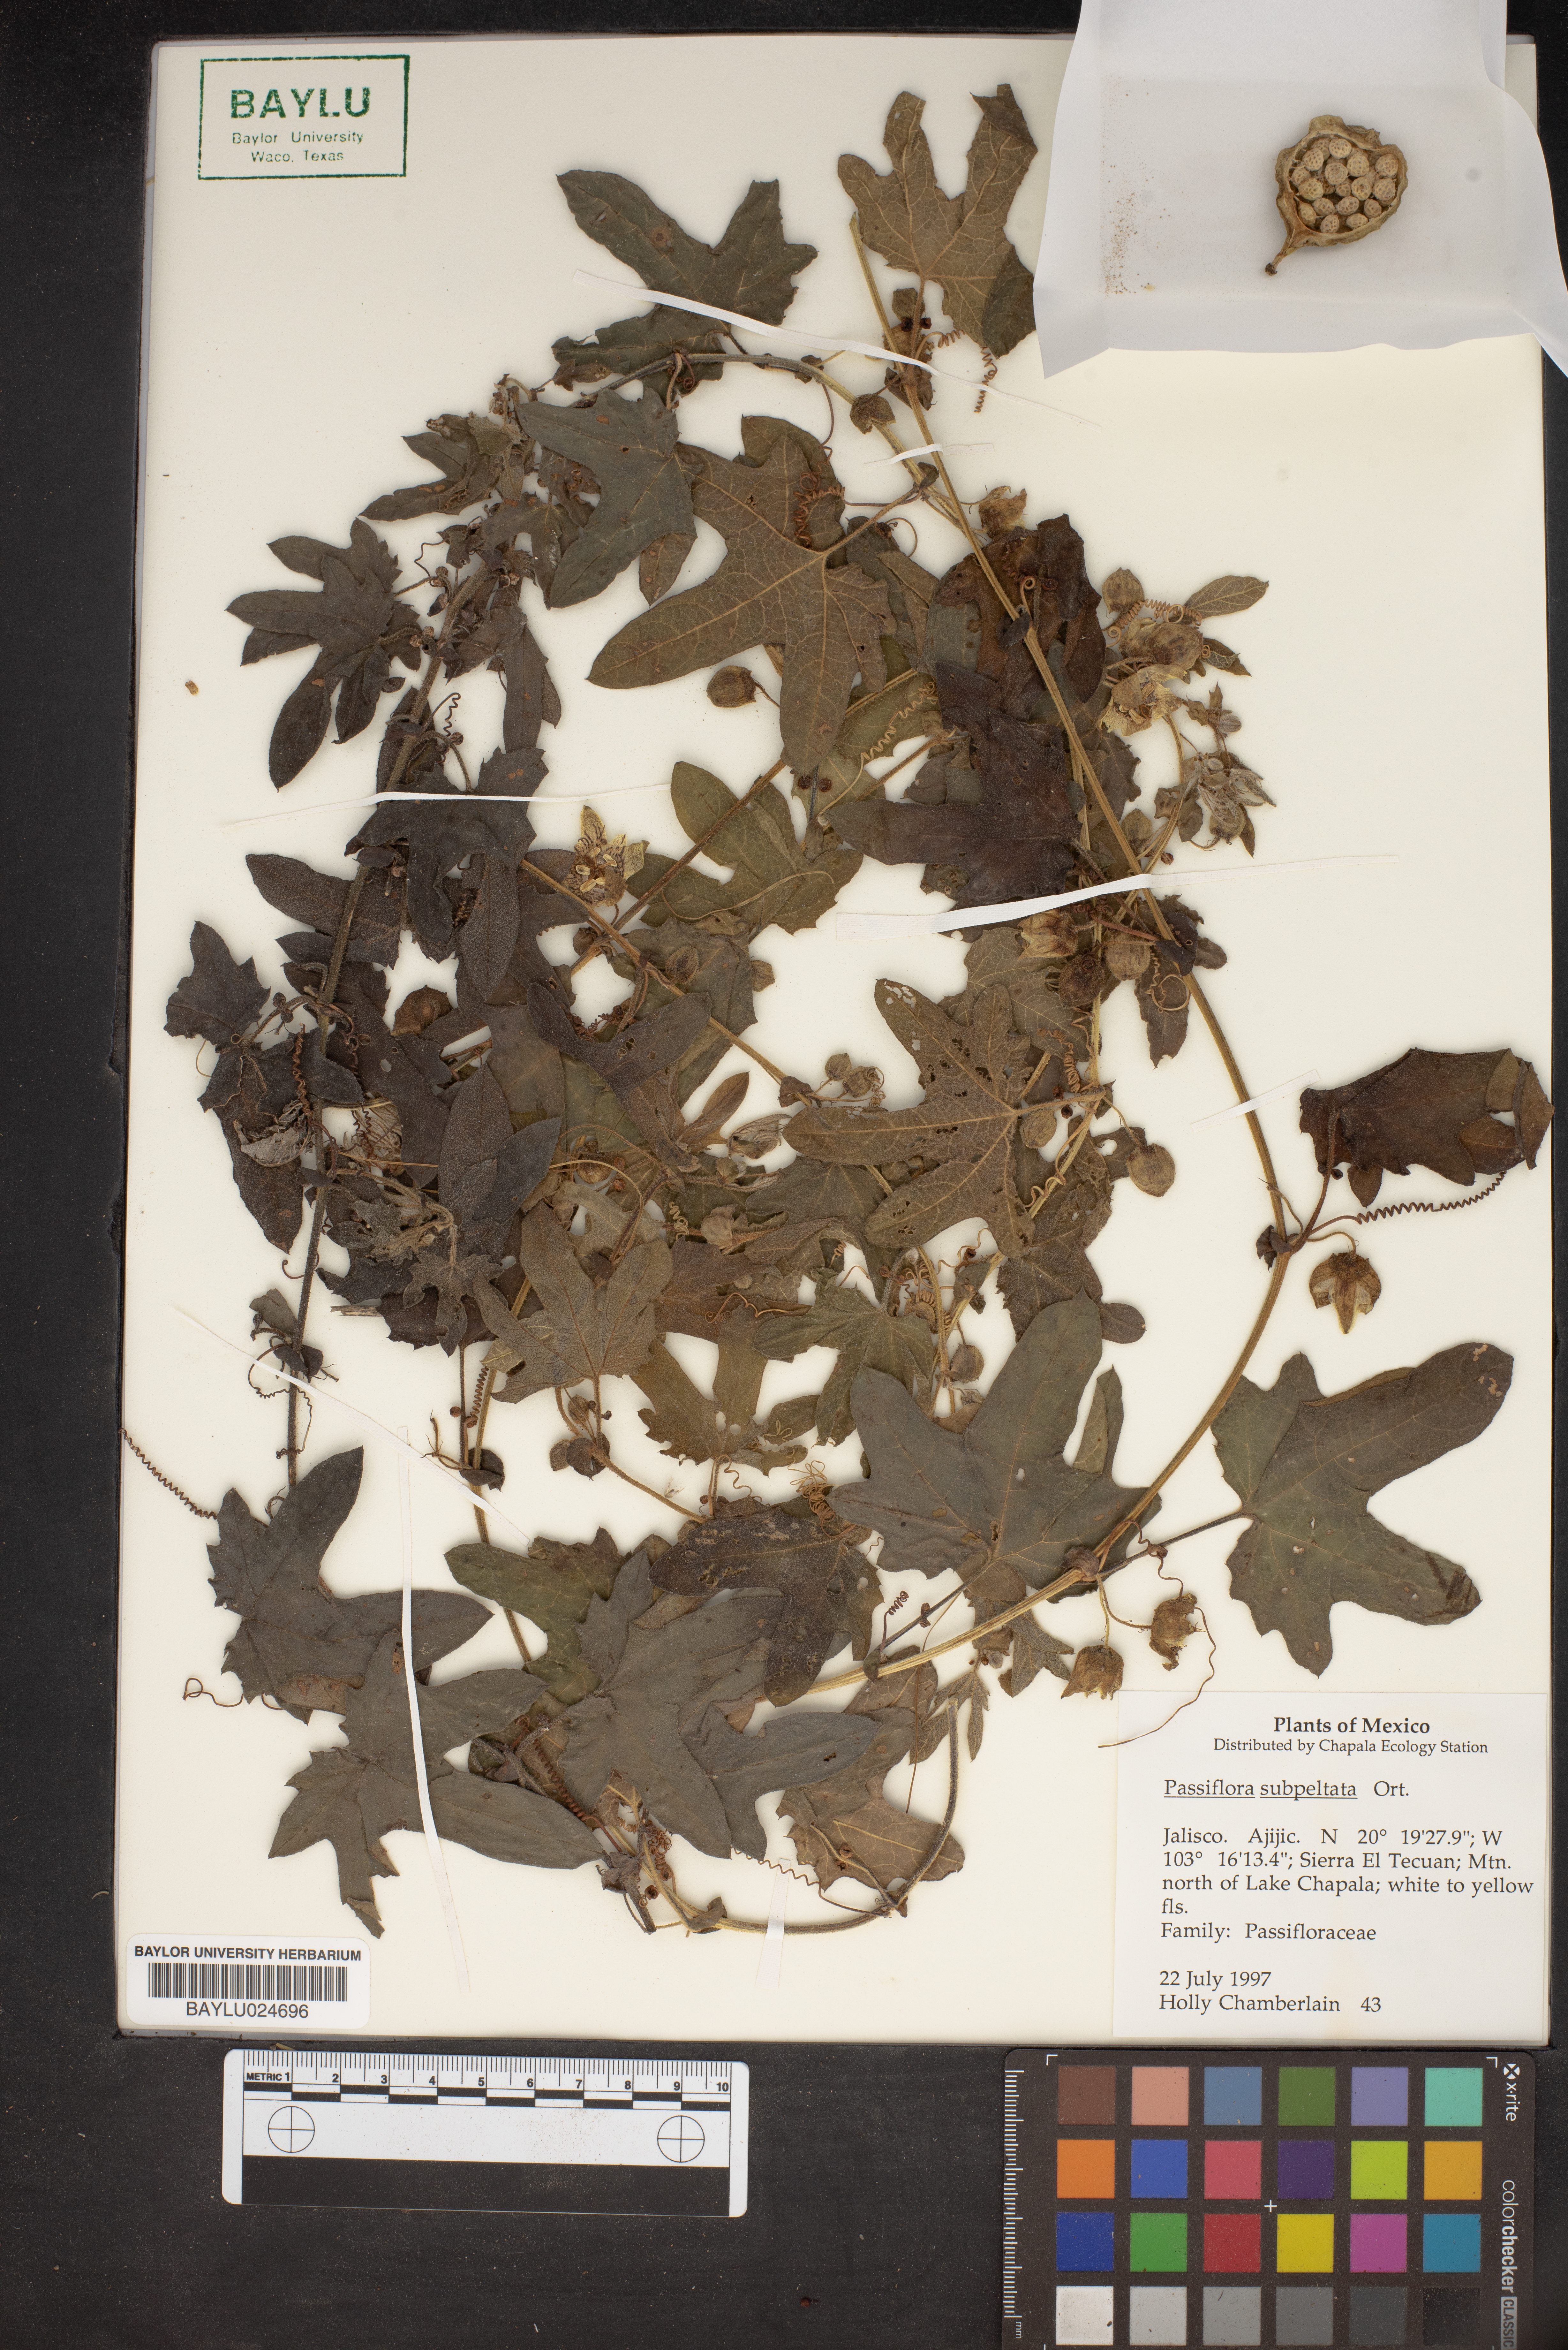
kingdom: Plantae
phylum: Tracheophyta
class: Magnoliopsida
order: Malpighiales
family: Passifloraceae
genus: Passiflora
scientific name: Passiflora subpeltata
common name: White passionflower
